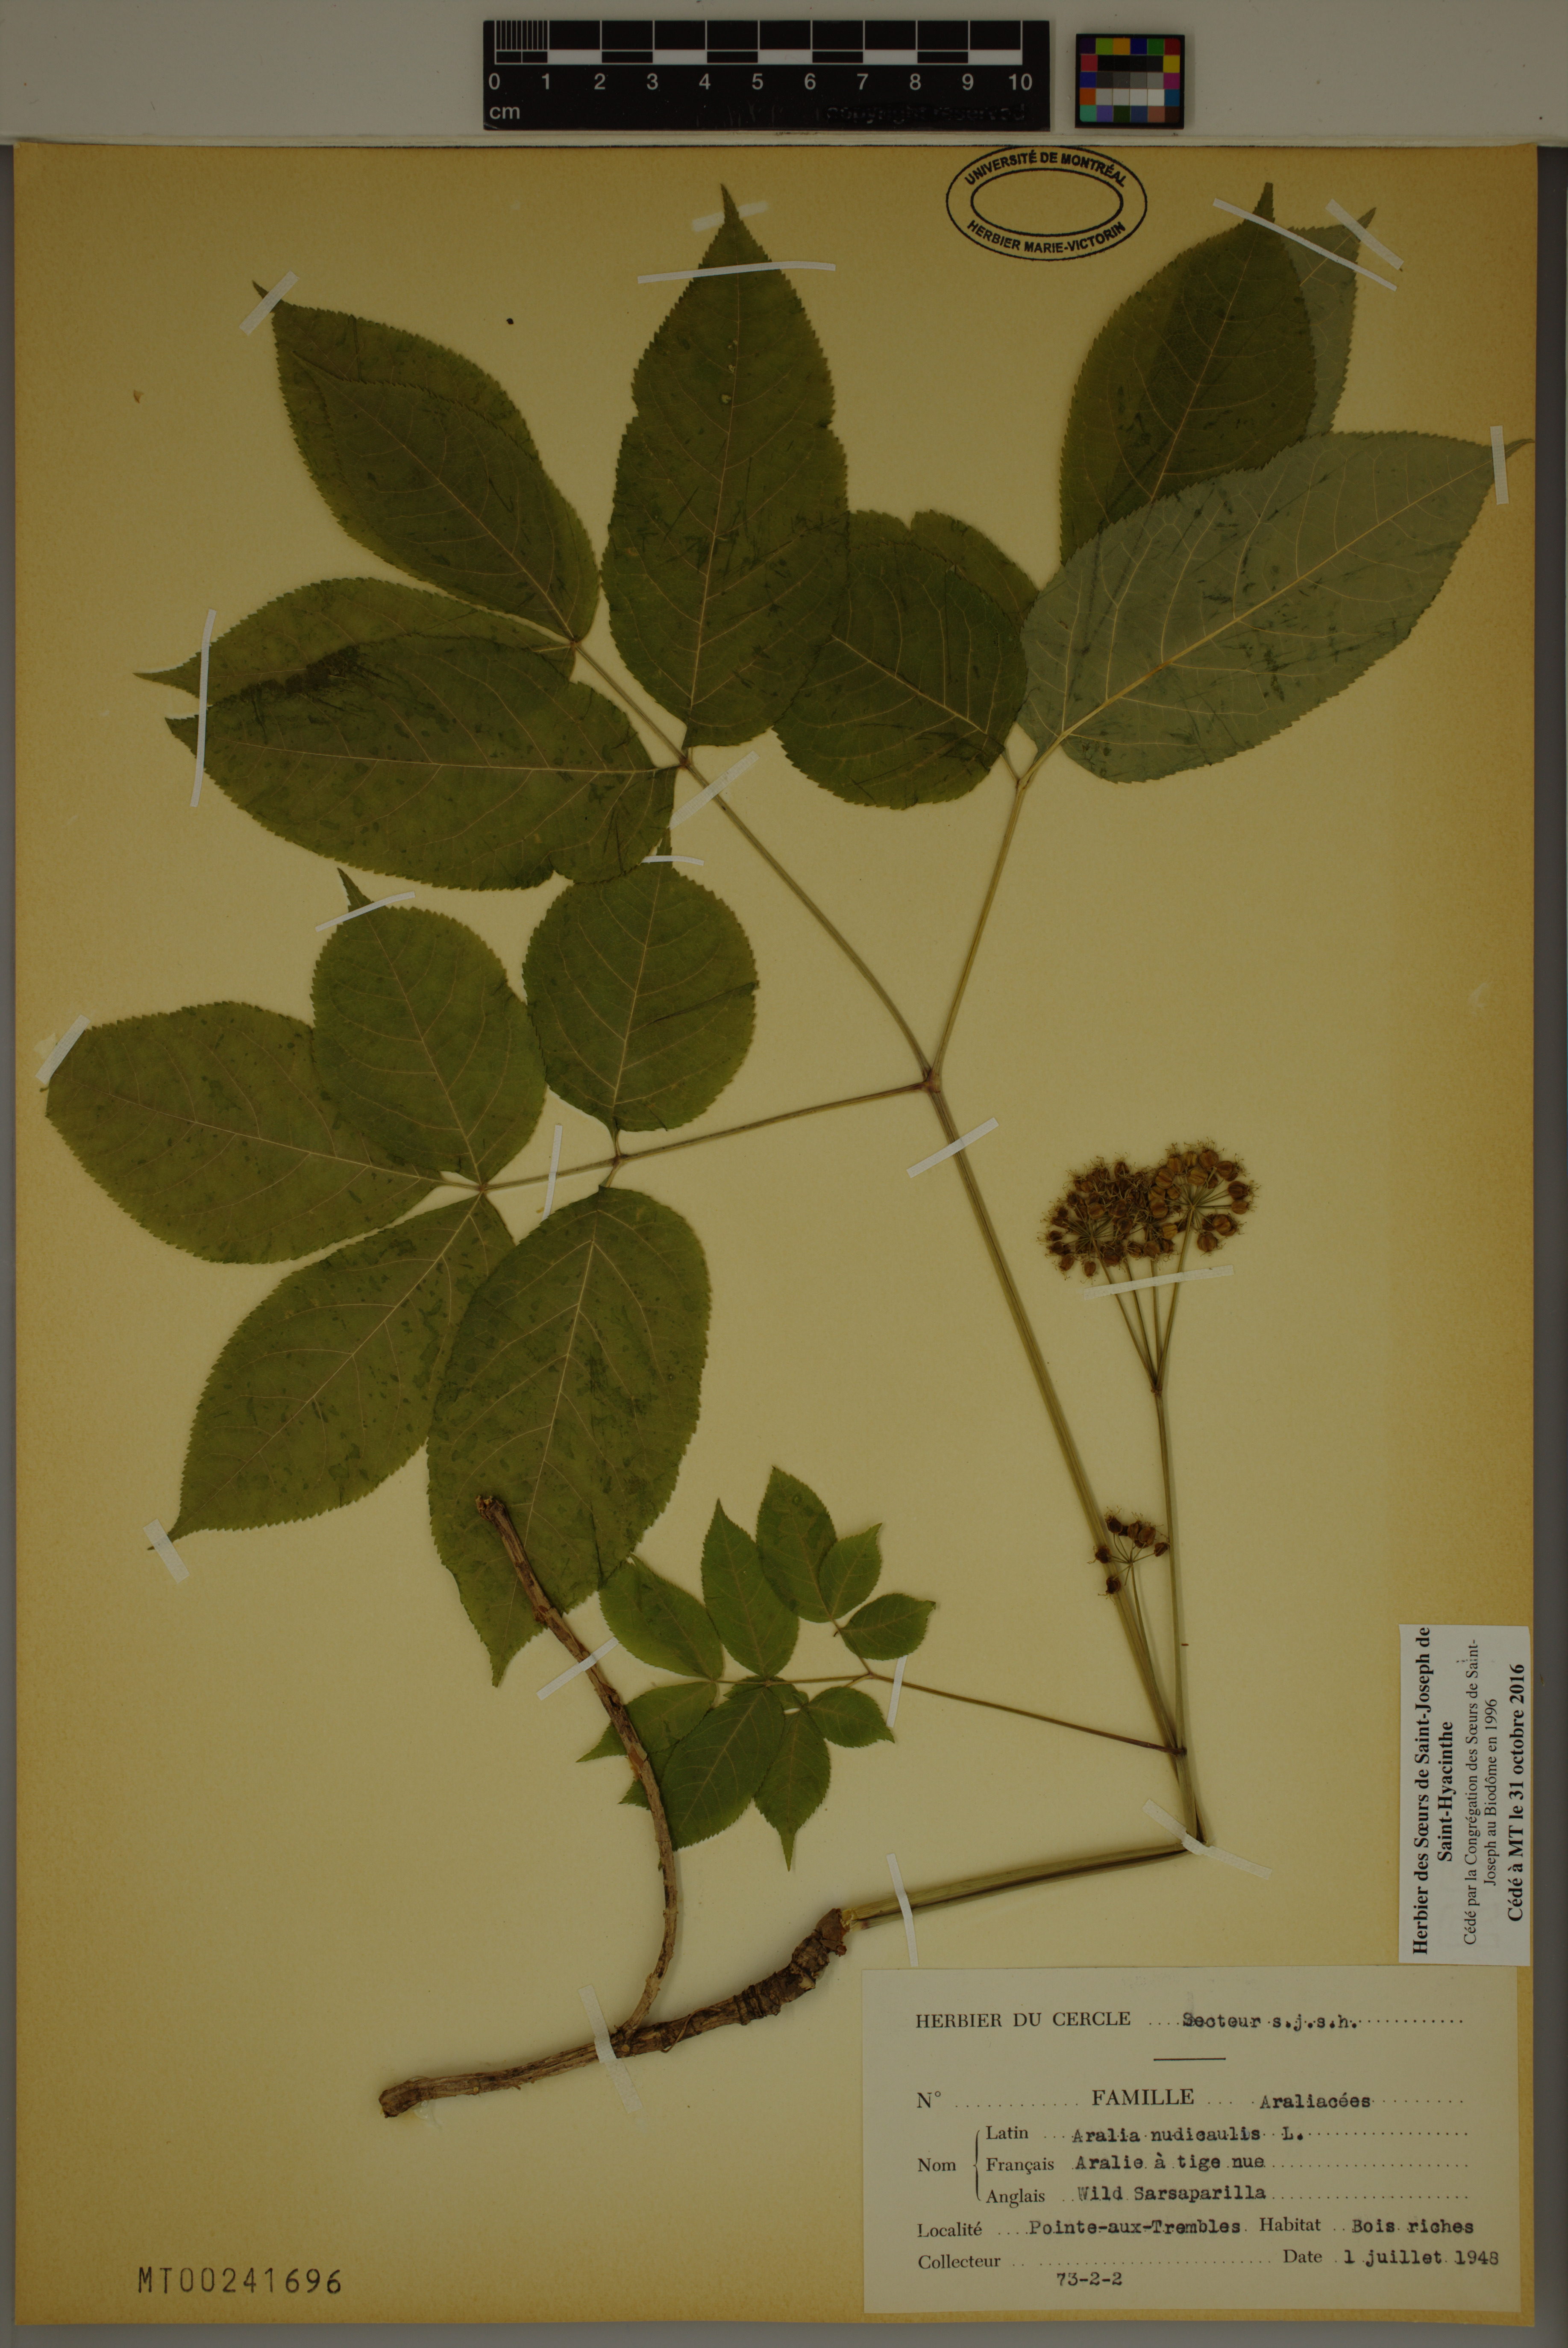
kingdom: Plantae
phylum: Tracheophyta
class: Magnoliopsida
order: Apiales
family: Araliaceae
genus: Aralia
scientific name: Aralia nudicaulis
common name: Wild sarsaparilla
